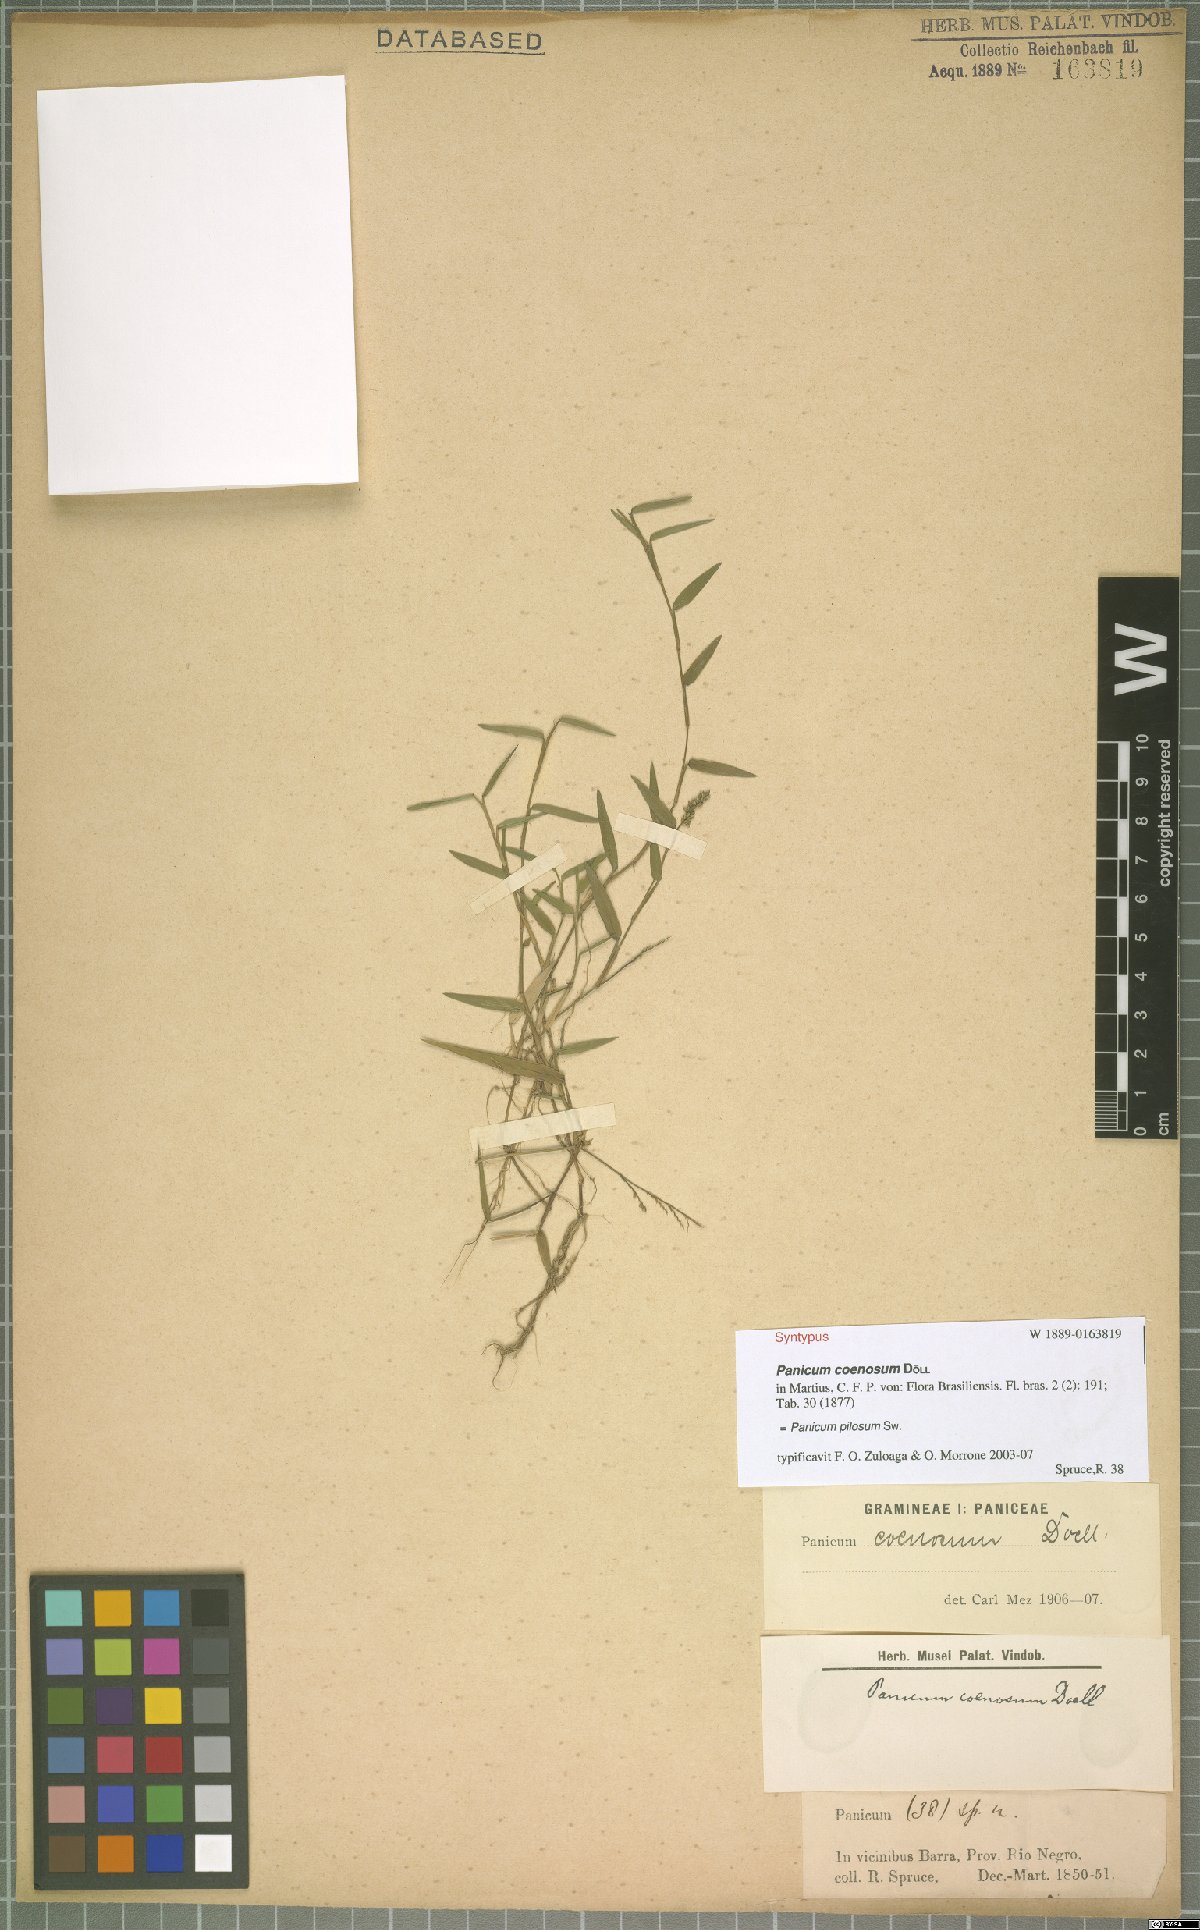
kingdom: Plantae
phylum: Tracheophyta
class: Liliopsida
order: Poales
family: Poaceae
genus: Rugoloa
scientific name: Rugoloa pilosa
